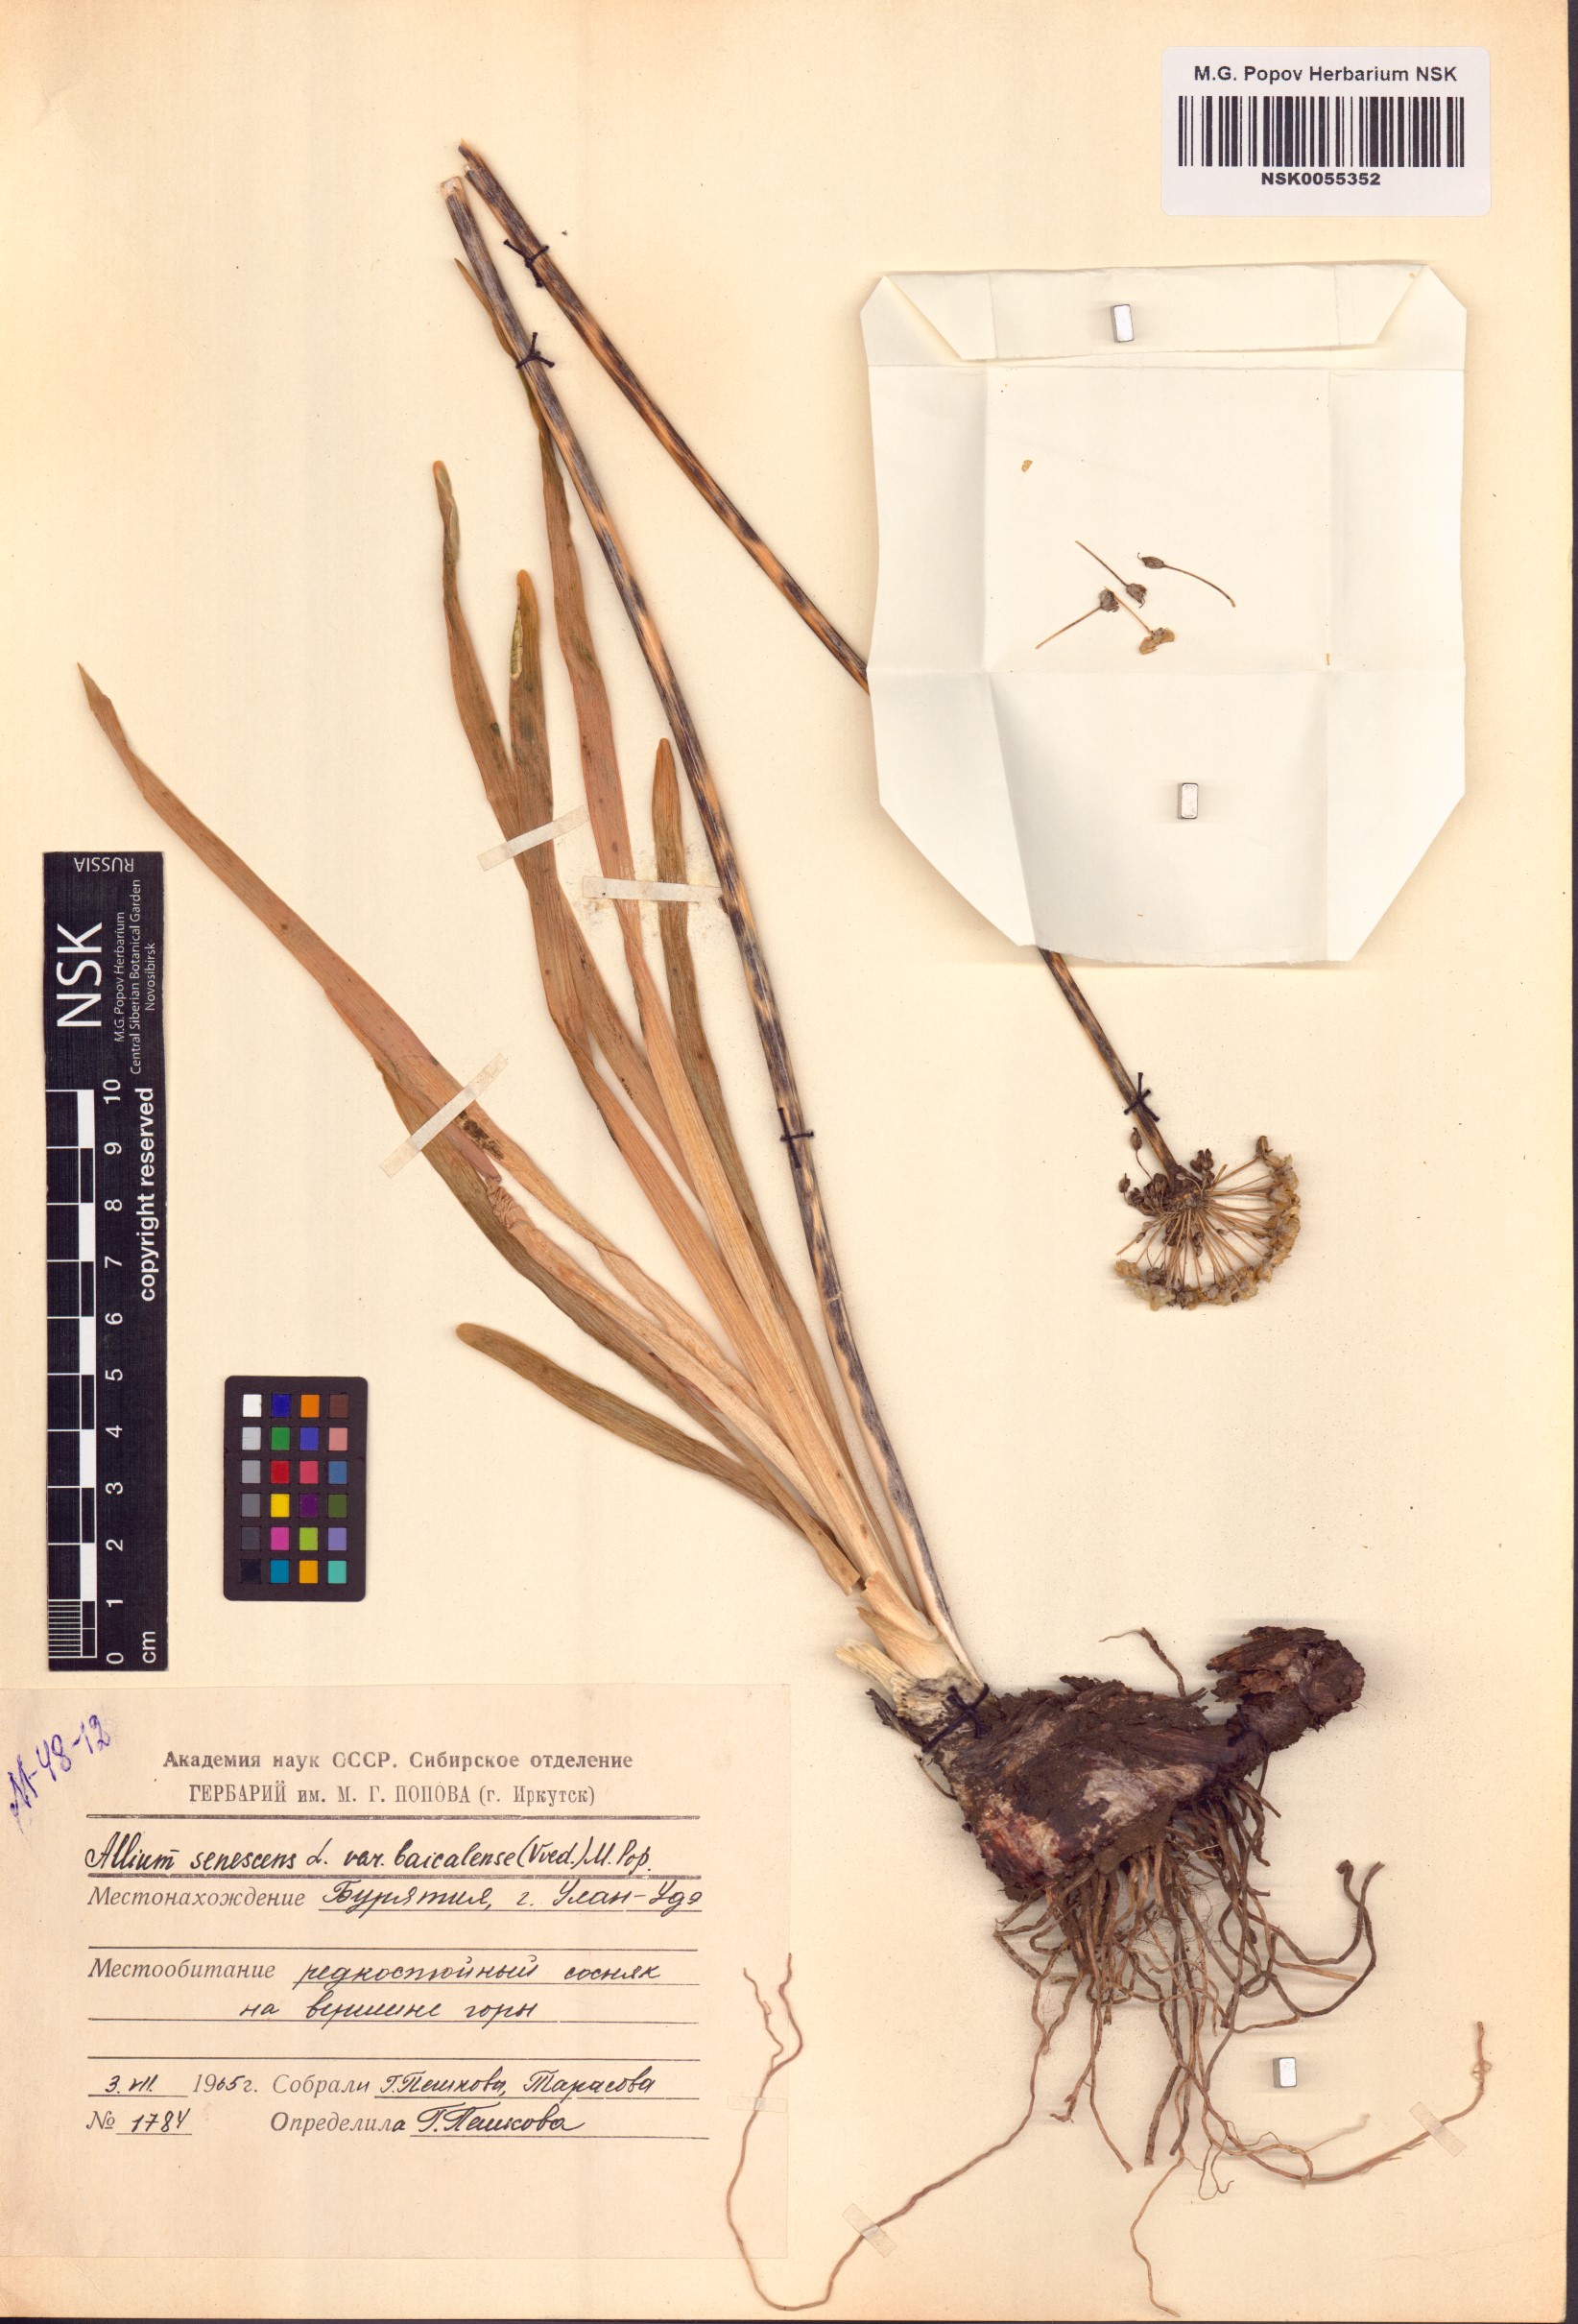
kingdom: Plantae
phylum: Tracheophyta
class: Liliopsida
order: Asparagales
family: Amaryllidaceae
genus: Allium
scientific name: Allium senescens
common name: German garlic
